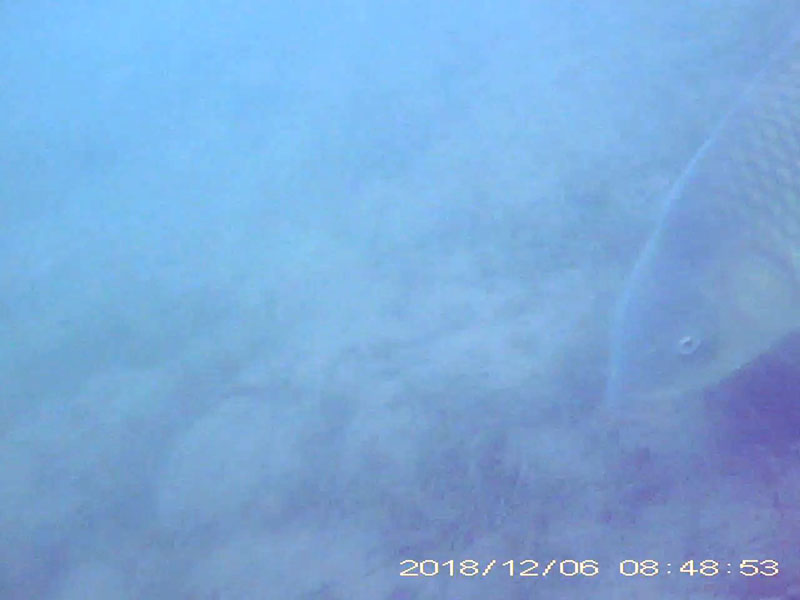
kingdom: Animalia
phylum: Chordata
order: Cypriniformes
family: Cyprinidae
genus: Cyprinus
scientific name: Cyprinus carpio
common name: コイ
